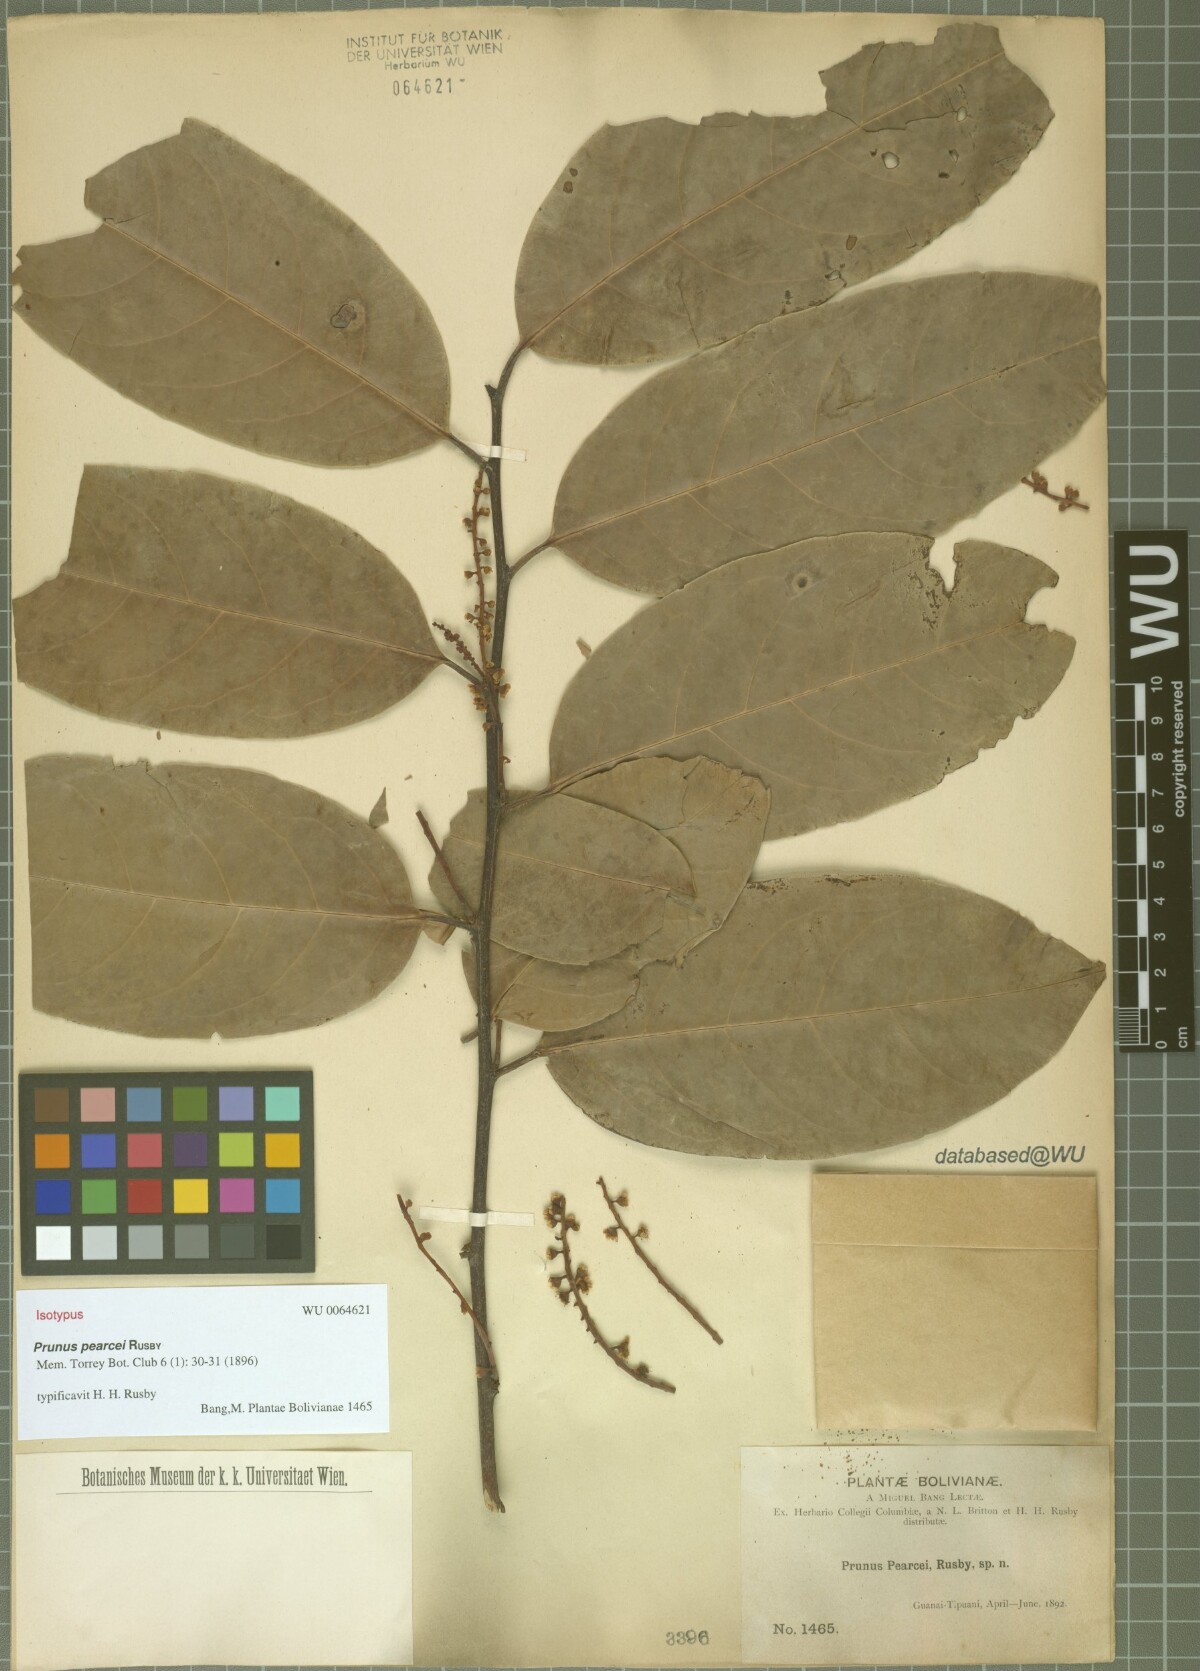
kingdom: Plantae
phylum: Tracheophyta
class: Magnoliopsida
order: Rosales
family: Rosaceae
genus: Prunus
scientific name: Prunus pearcei
